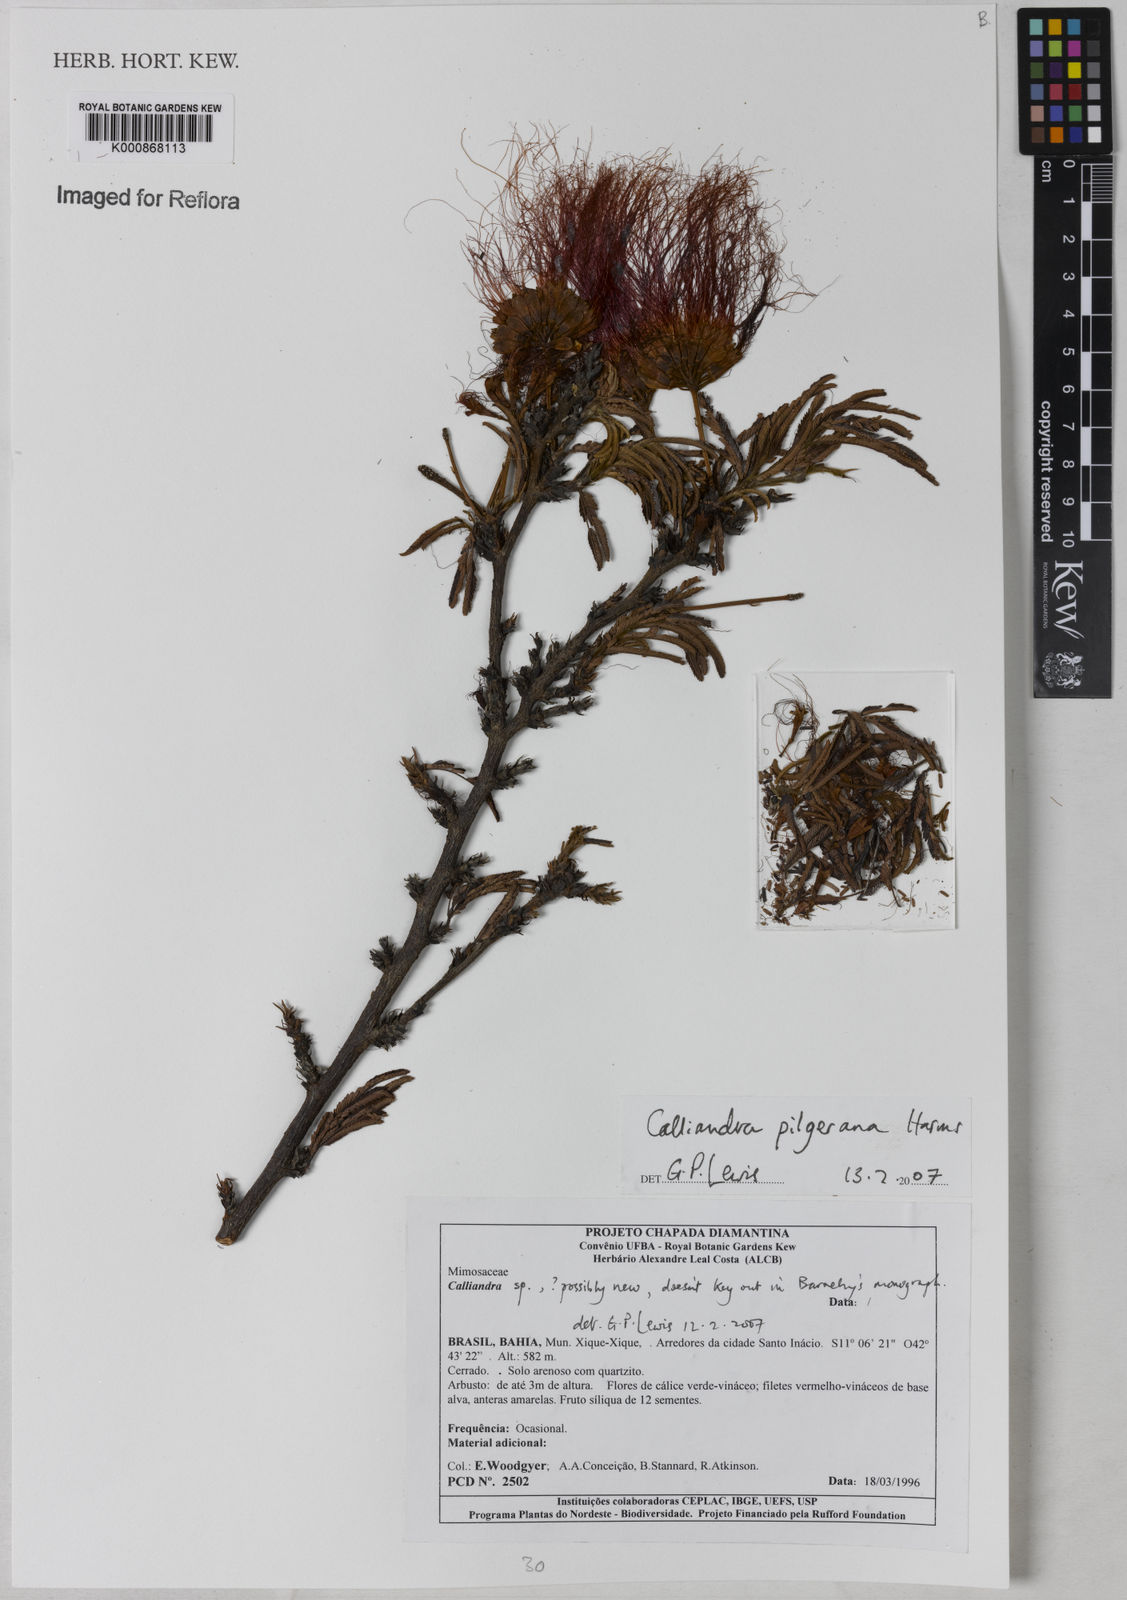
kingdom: Plantae
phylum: Tracheophyta
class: Magnoliopsida
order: Fabales
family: Fabaceae
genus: Calliandra
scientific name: Calliandra pilgeriana
